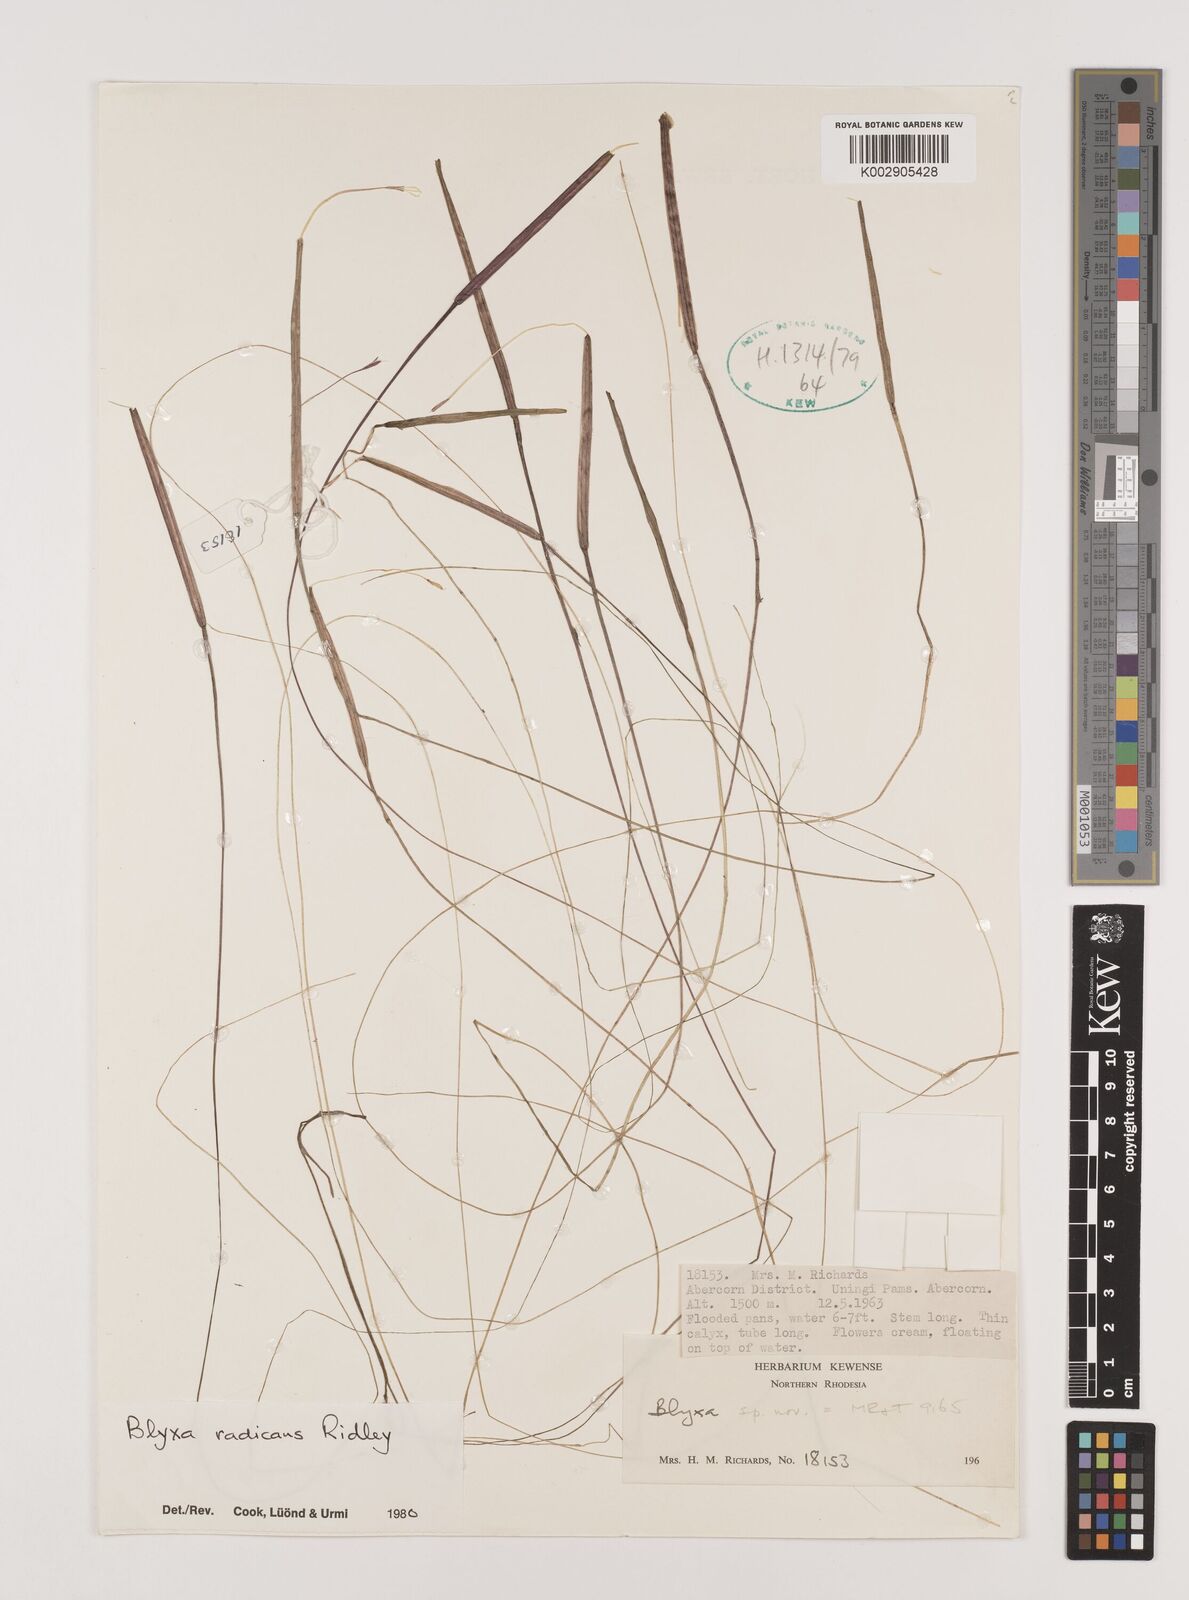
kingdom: Plantae
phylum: Tracheophyta
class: Liliopsida
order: Alismatales
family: Hydrocharitaceae
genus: Blyxa
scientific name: Blyxa radicans
